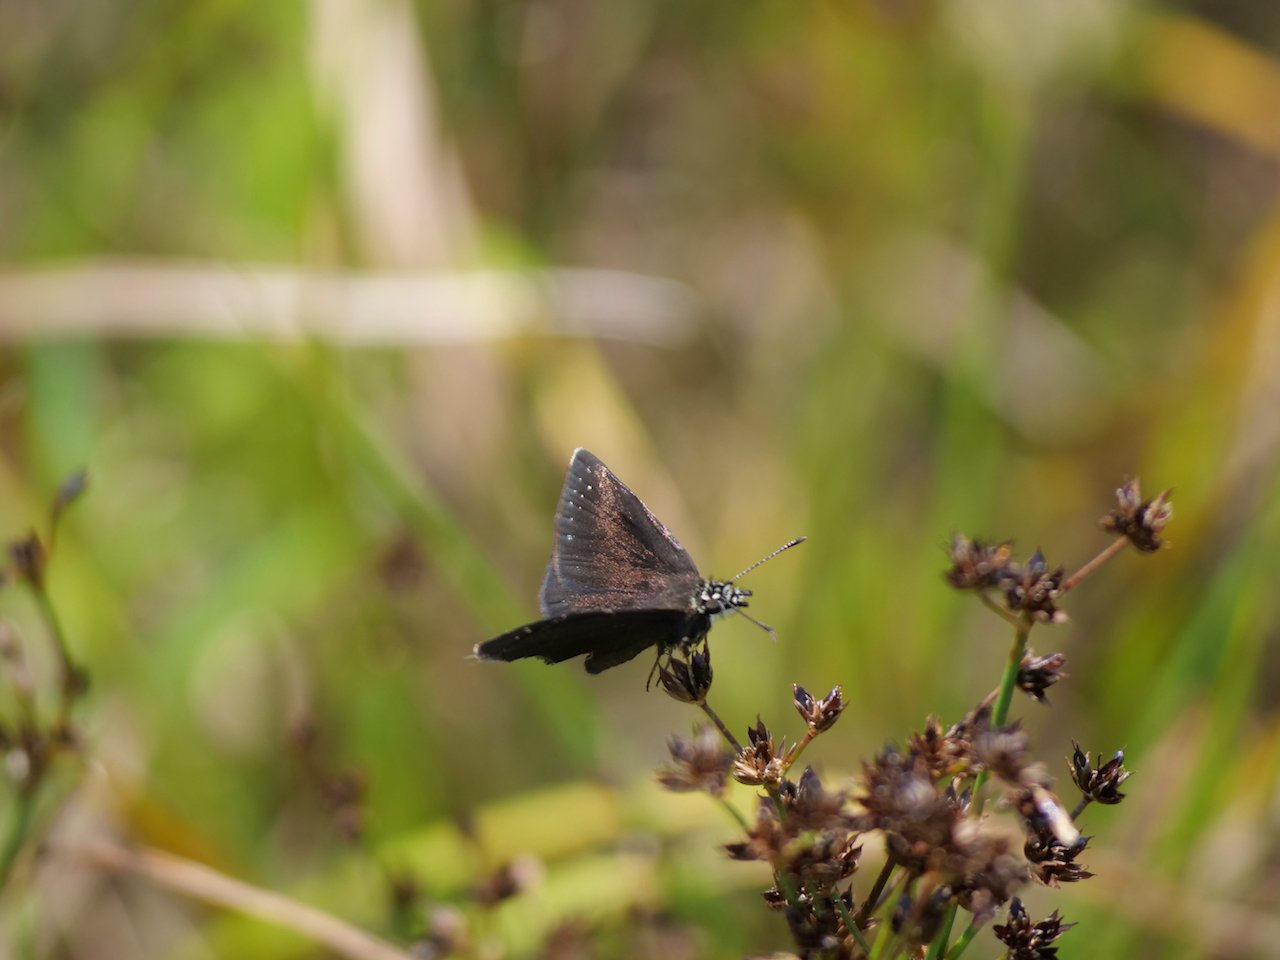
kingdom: Animalia
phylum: Arthropoda
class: Insecta
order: Lepidoptera
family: Hesperiidae
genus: Pholisora
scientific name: Pholisora catullus
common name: Common Sootywing
